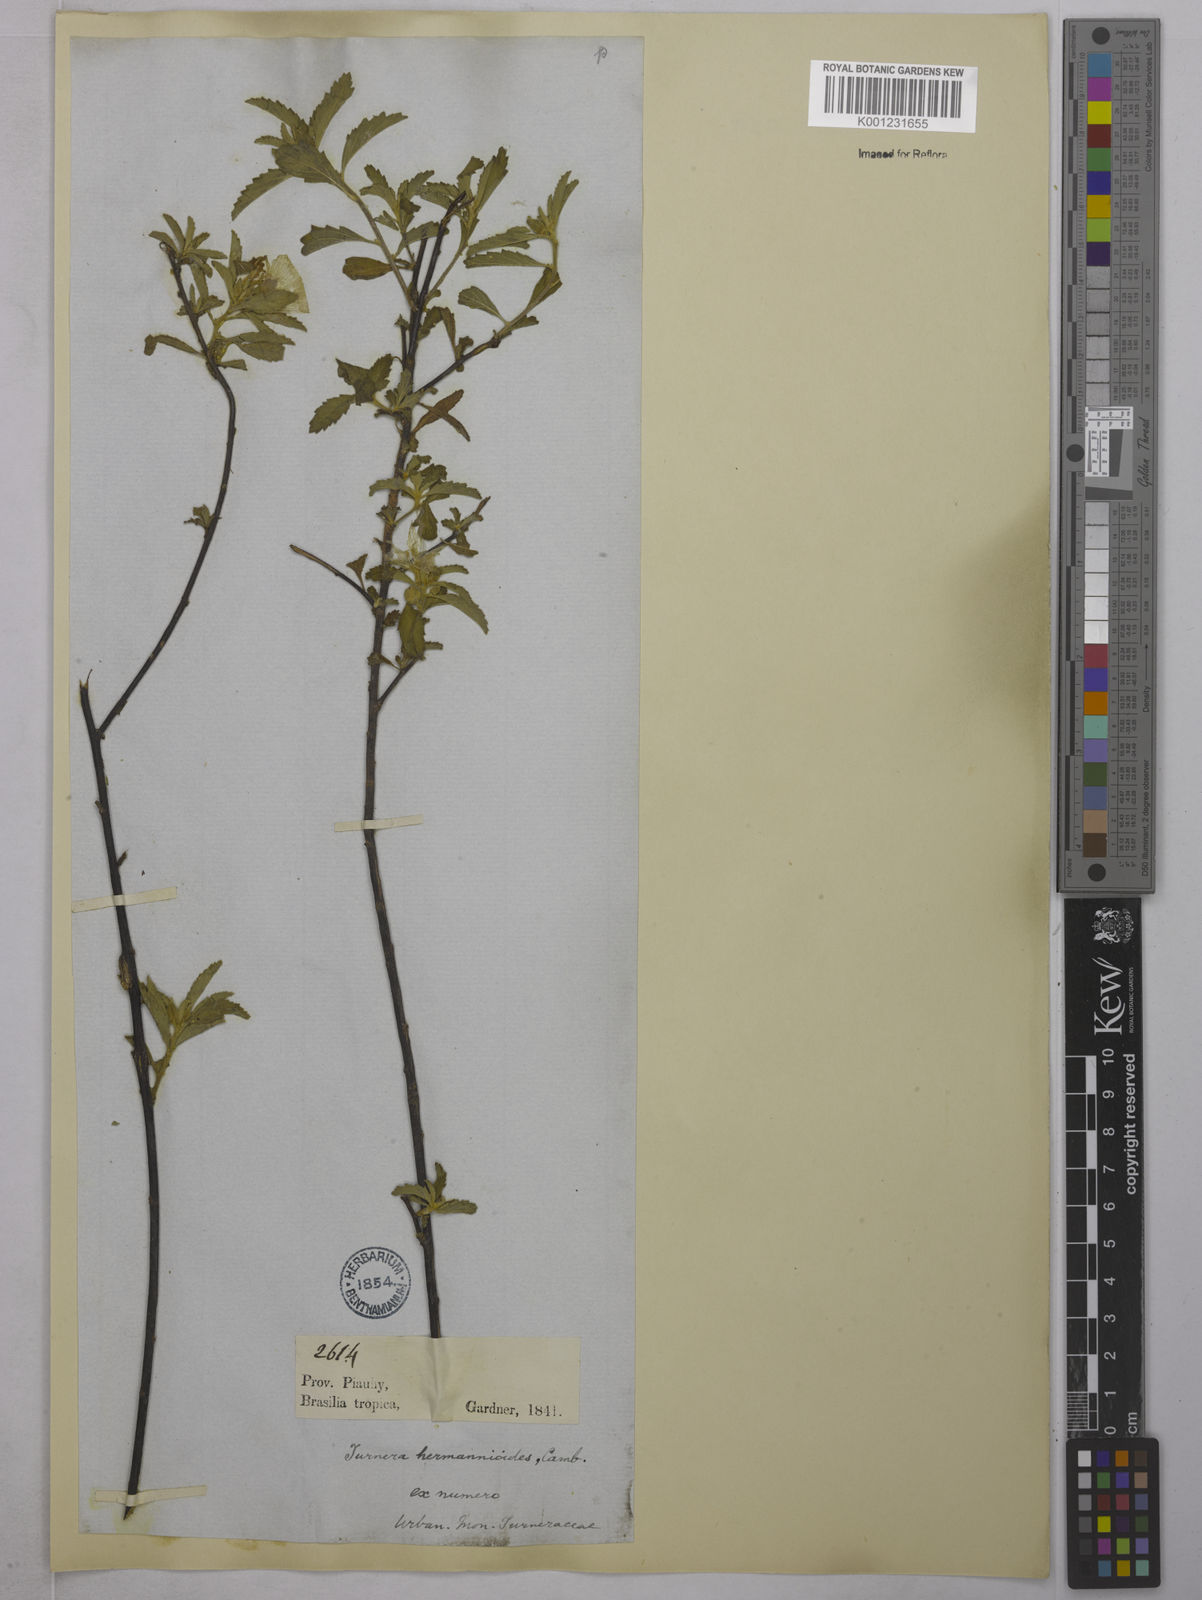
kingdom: Plantae
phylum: Tracheophyta
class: Magnoliopsida
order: Malpighiales
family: Turneraceae
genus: Turnera
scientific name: Turnera hermannioides
